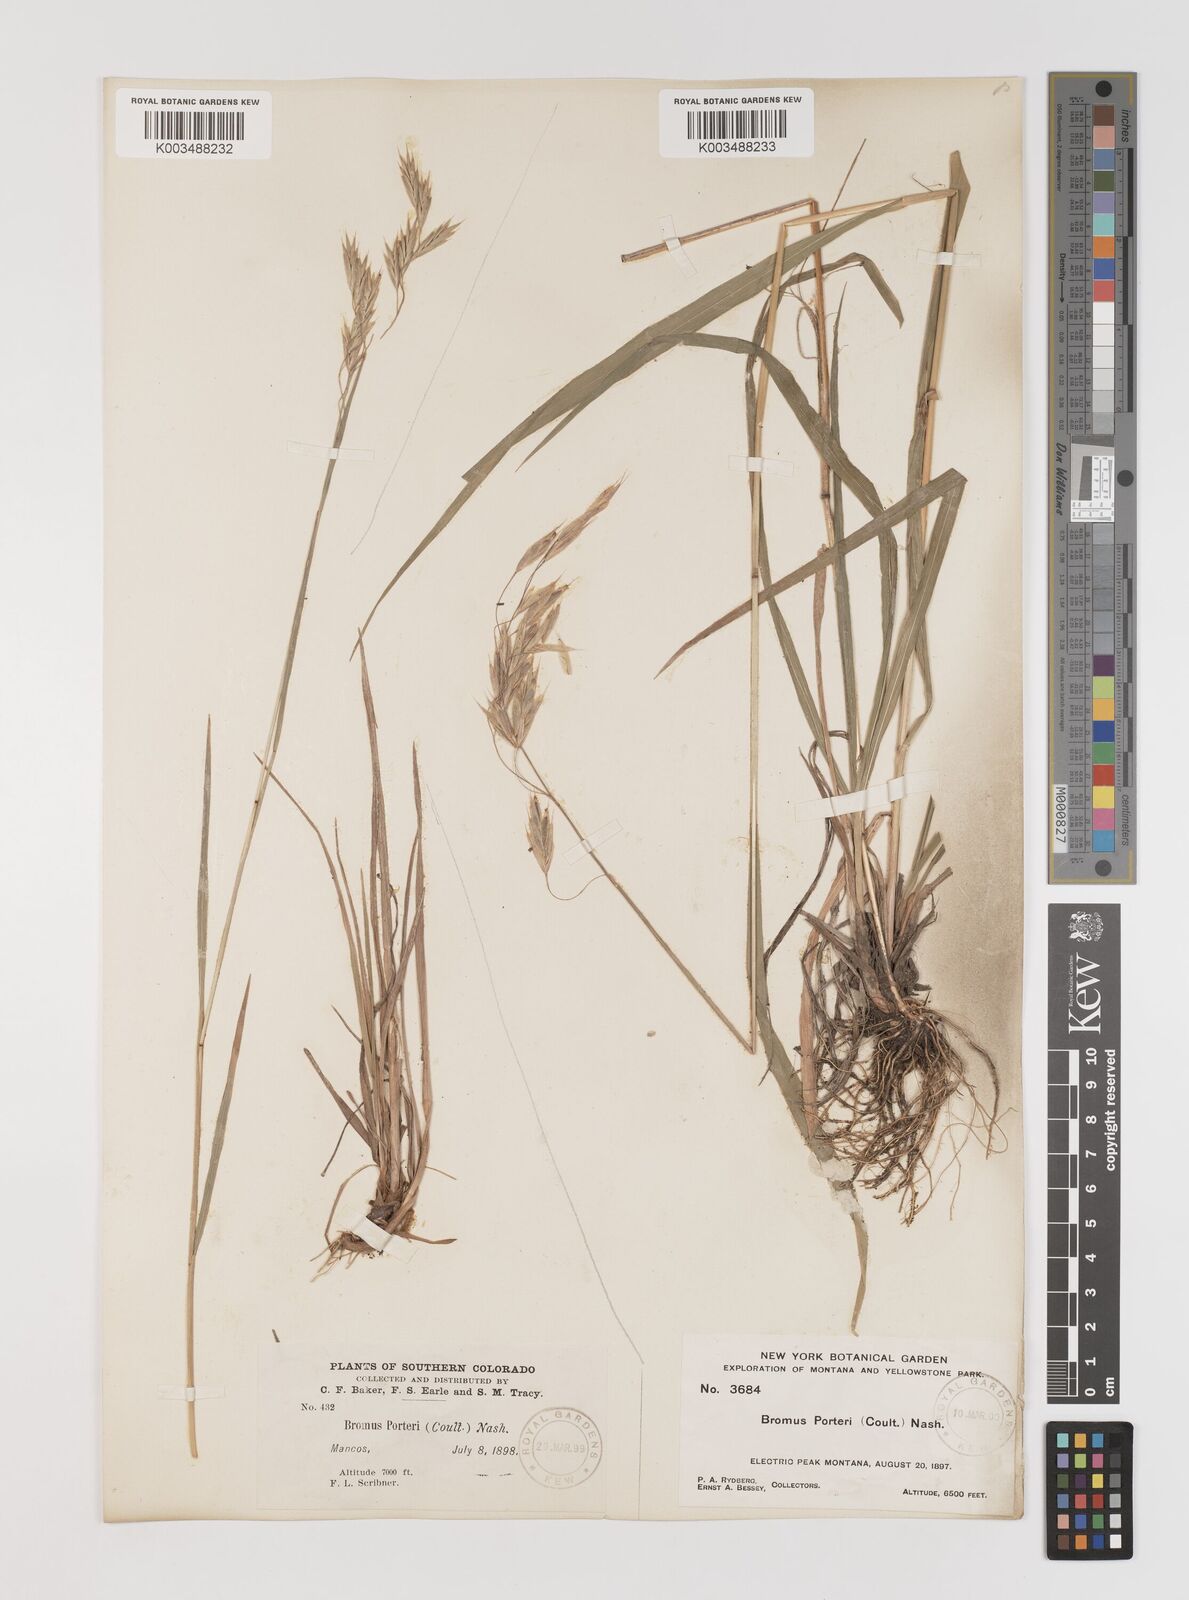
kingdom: Plantae
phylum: Tracheophyta
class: Liliopsida
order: Poales
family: Poaceae
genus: Bromus
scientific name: Bromus porteri
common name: Nodding brome
